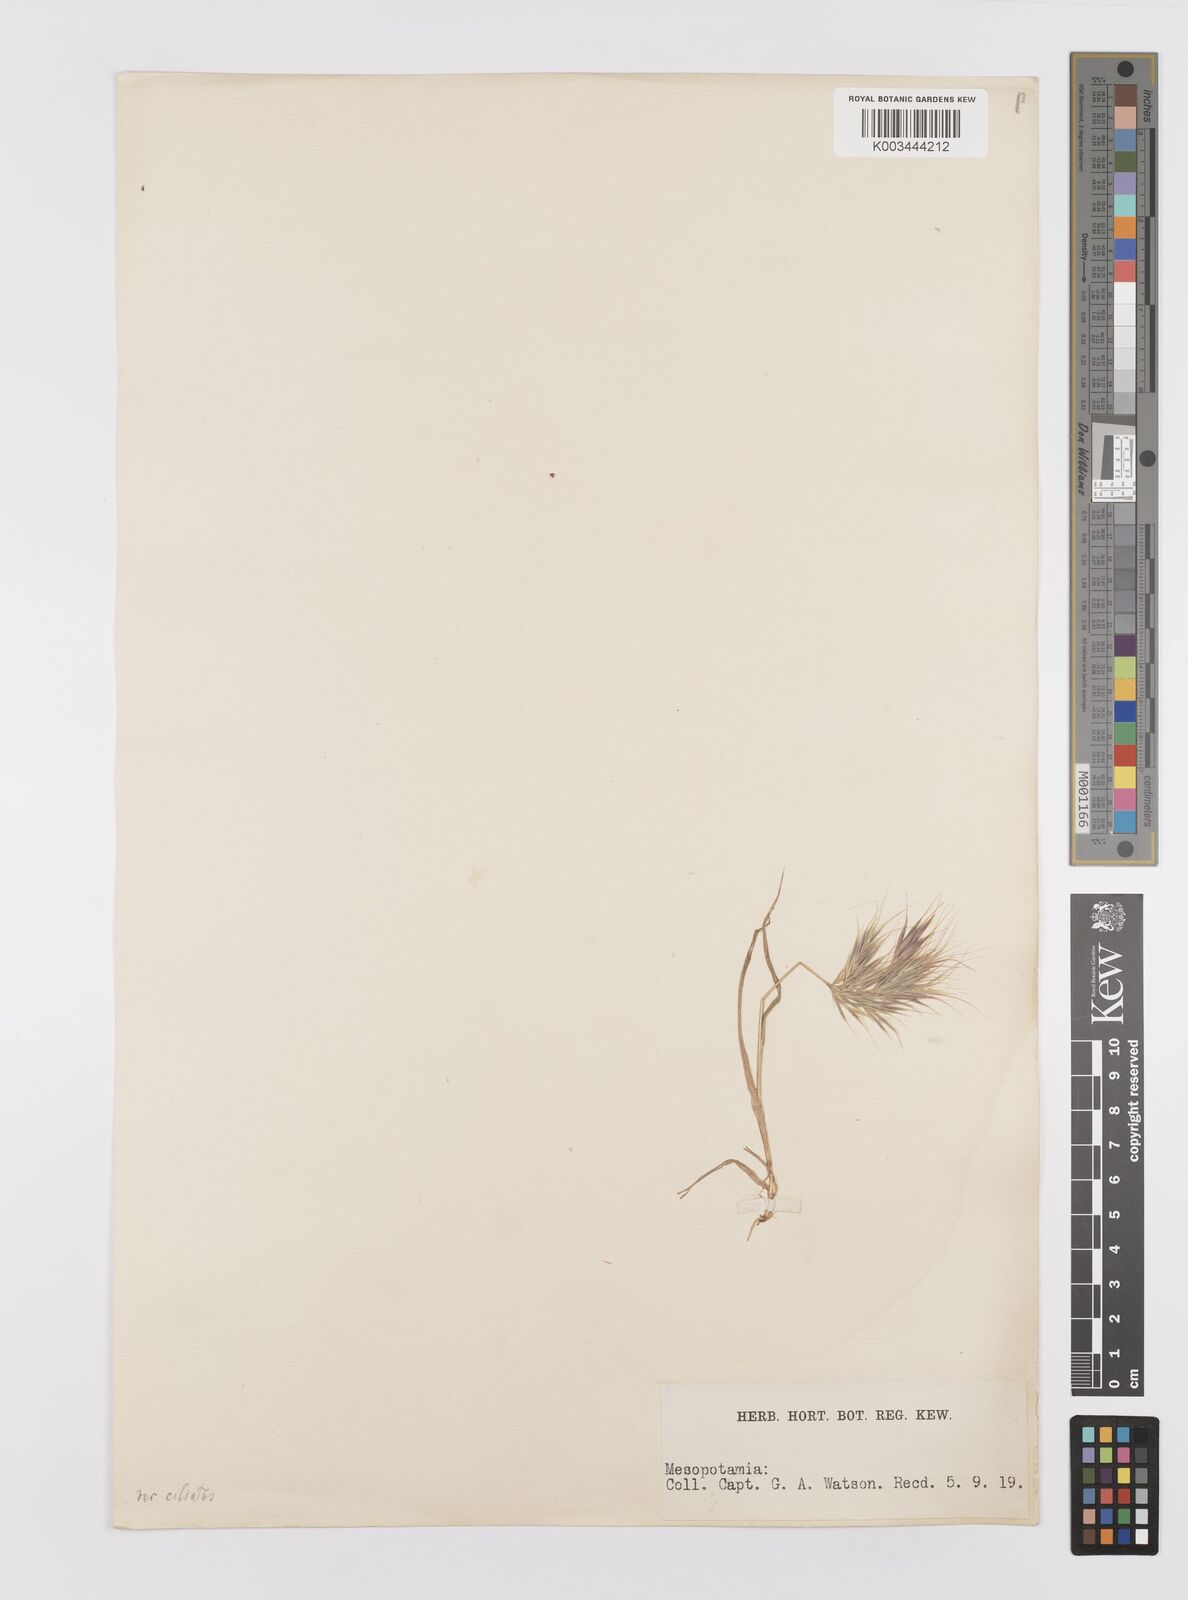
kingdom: Plantae
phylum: Tracheophyta
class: Liliopsida
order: Poales
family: Poaceae
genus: Bromus
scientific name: Bromus madritensis
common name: Compact brome
